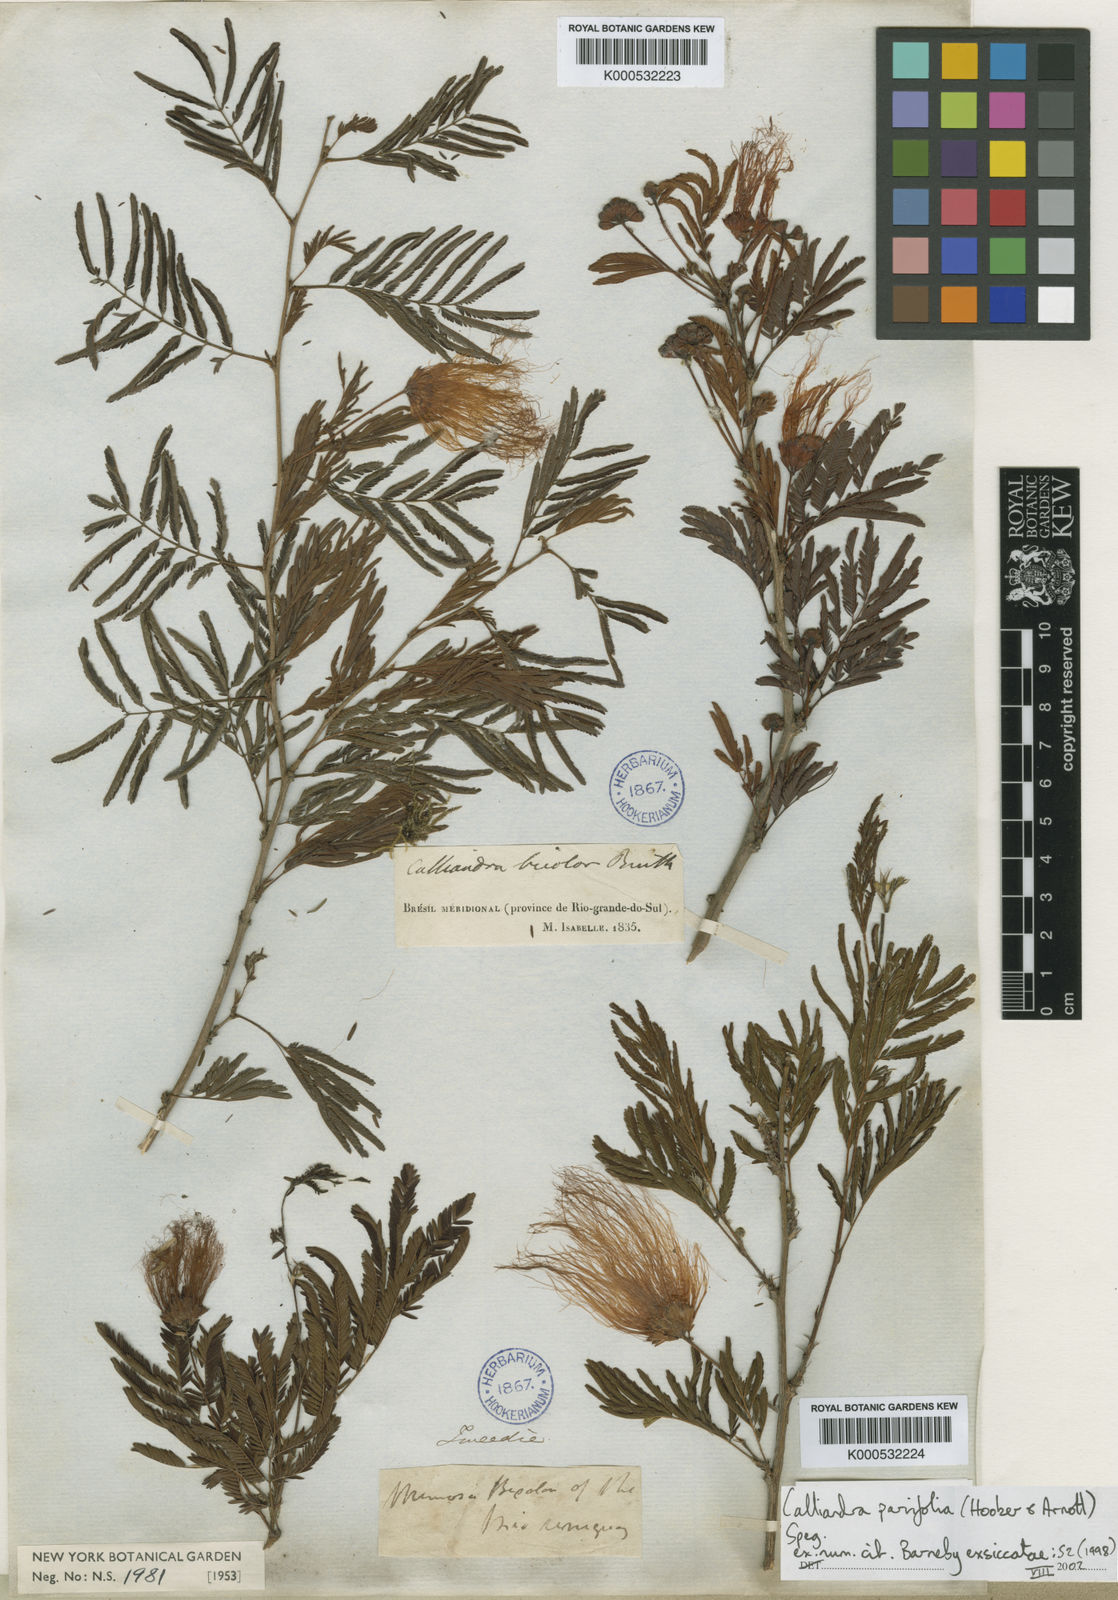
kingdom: Plantae
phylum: Tracheophyta
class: Magnoliopsida
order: Fabales
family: Fabaceae
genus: Calliandra
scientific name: Calliandra parvifolia
